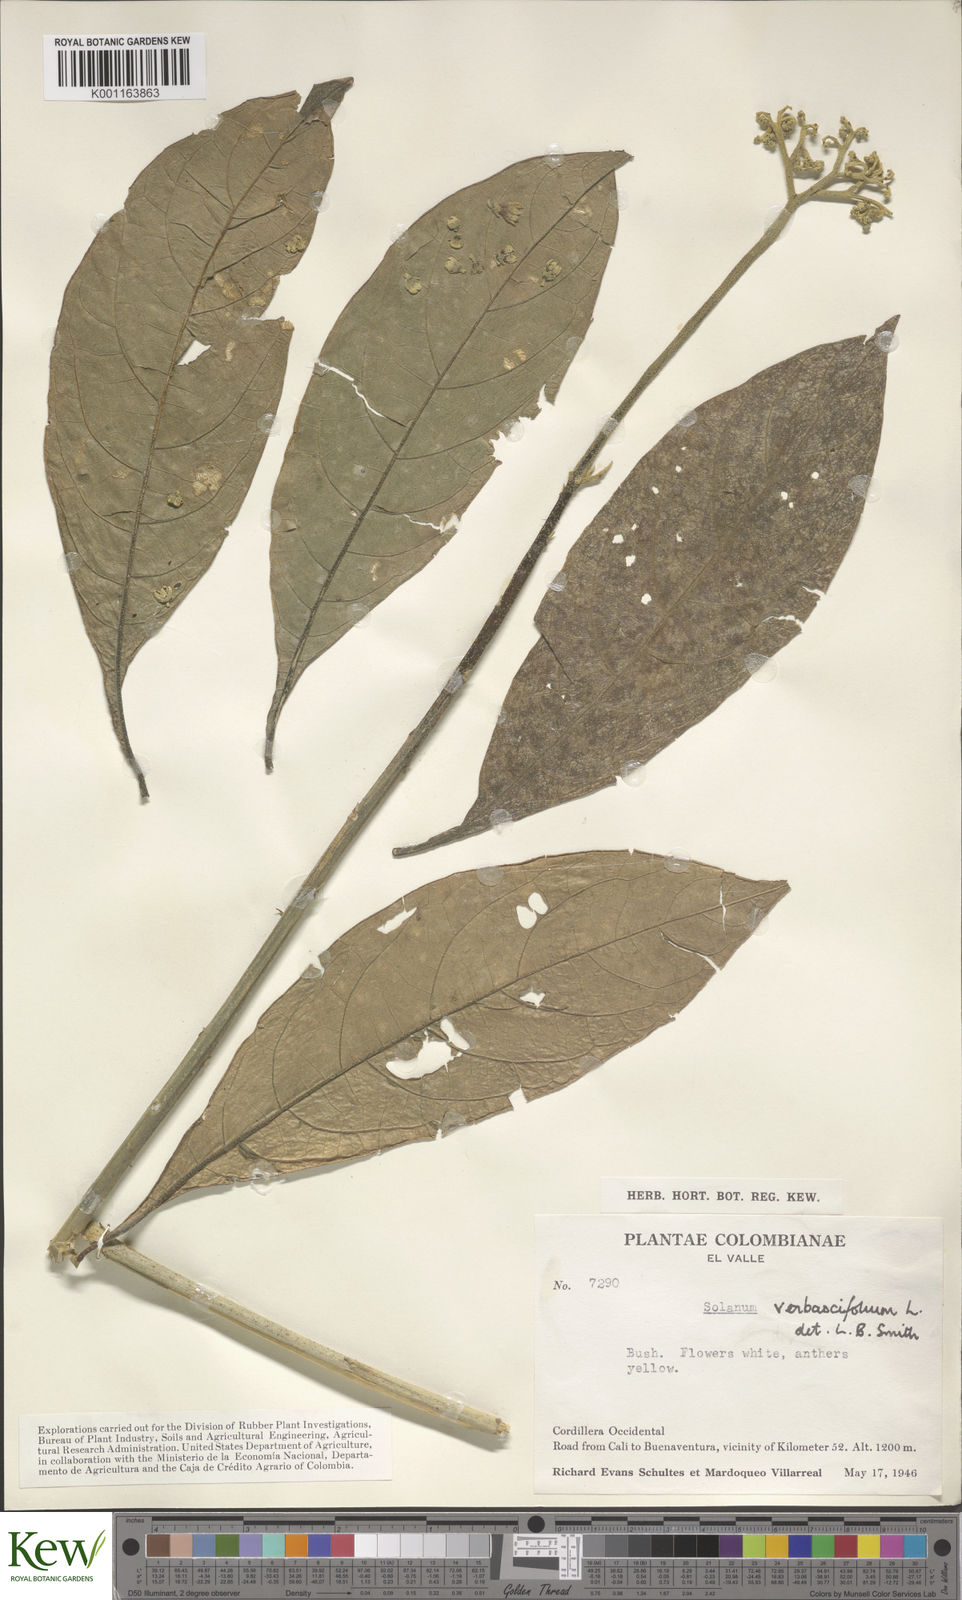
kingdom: Plantae
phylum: Tracheophyta
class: Magnoliopsida
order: Solanales
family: Solanaceae
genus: Solanum
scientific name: Solanum erianthum
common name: Tobacco-tree
